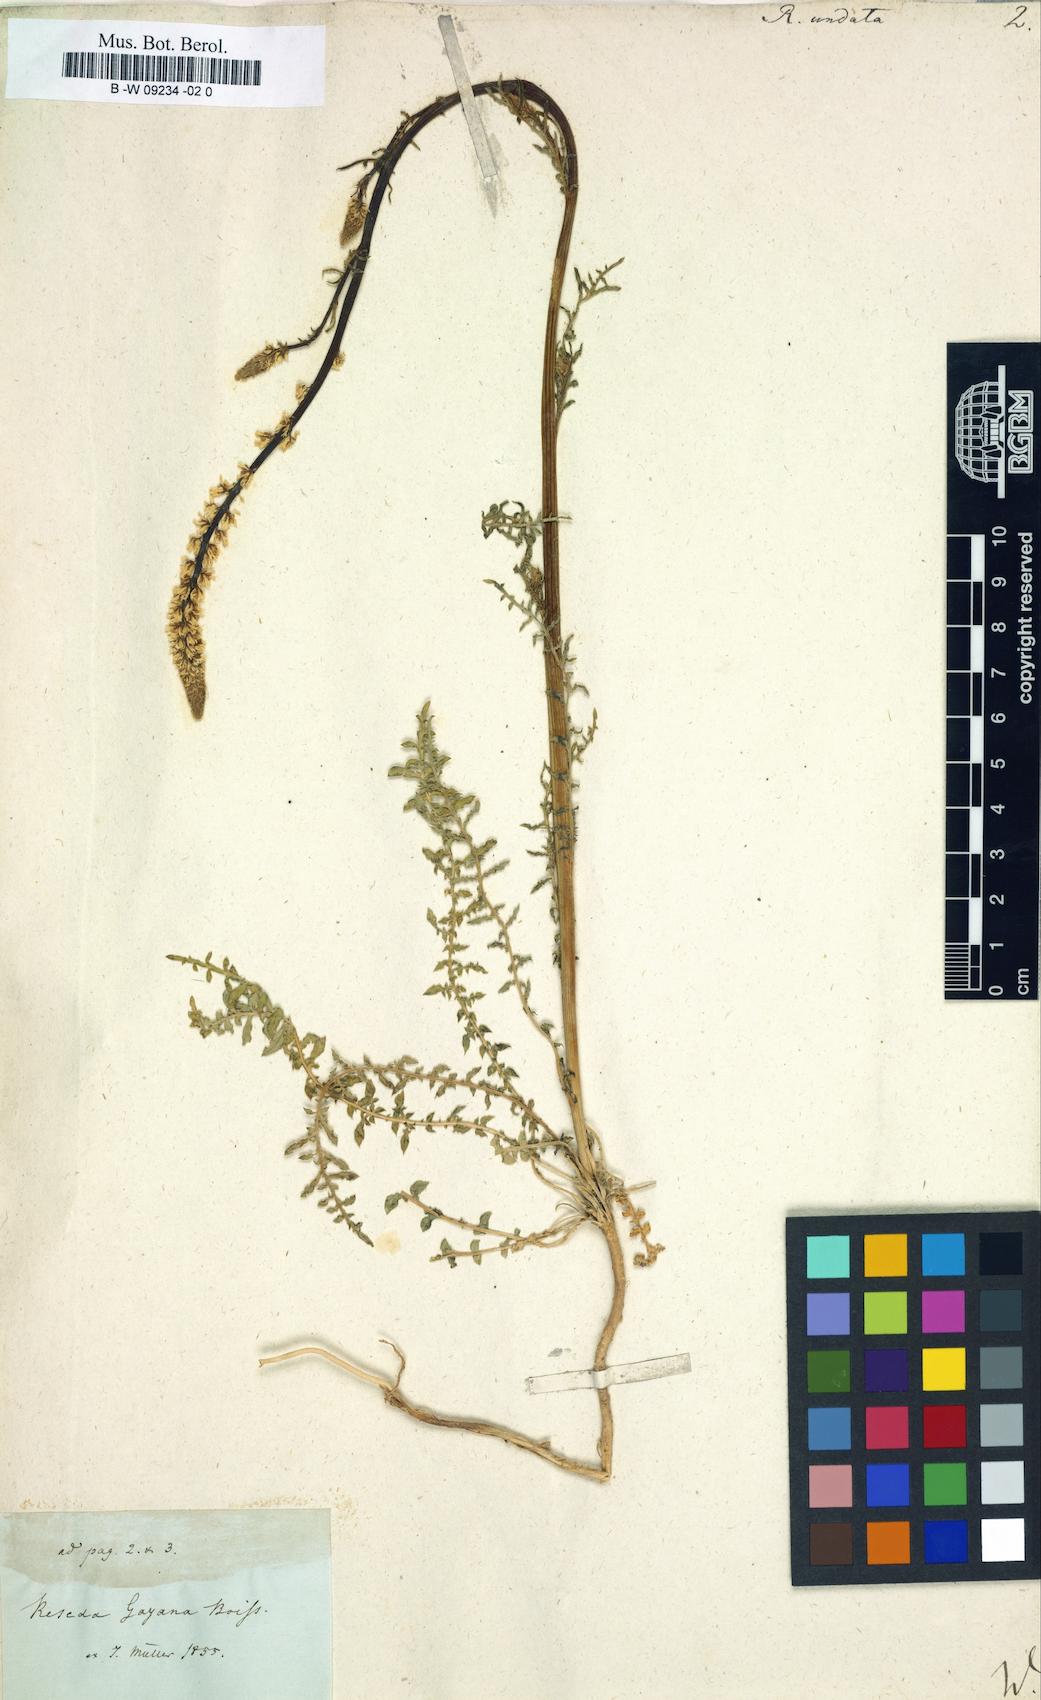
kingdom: Plantae
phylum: Tracheophyta
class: Magnoliopsida
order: Brassicales
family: Resedaceae
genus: Reseda
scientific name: Reseda undata
